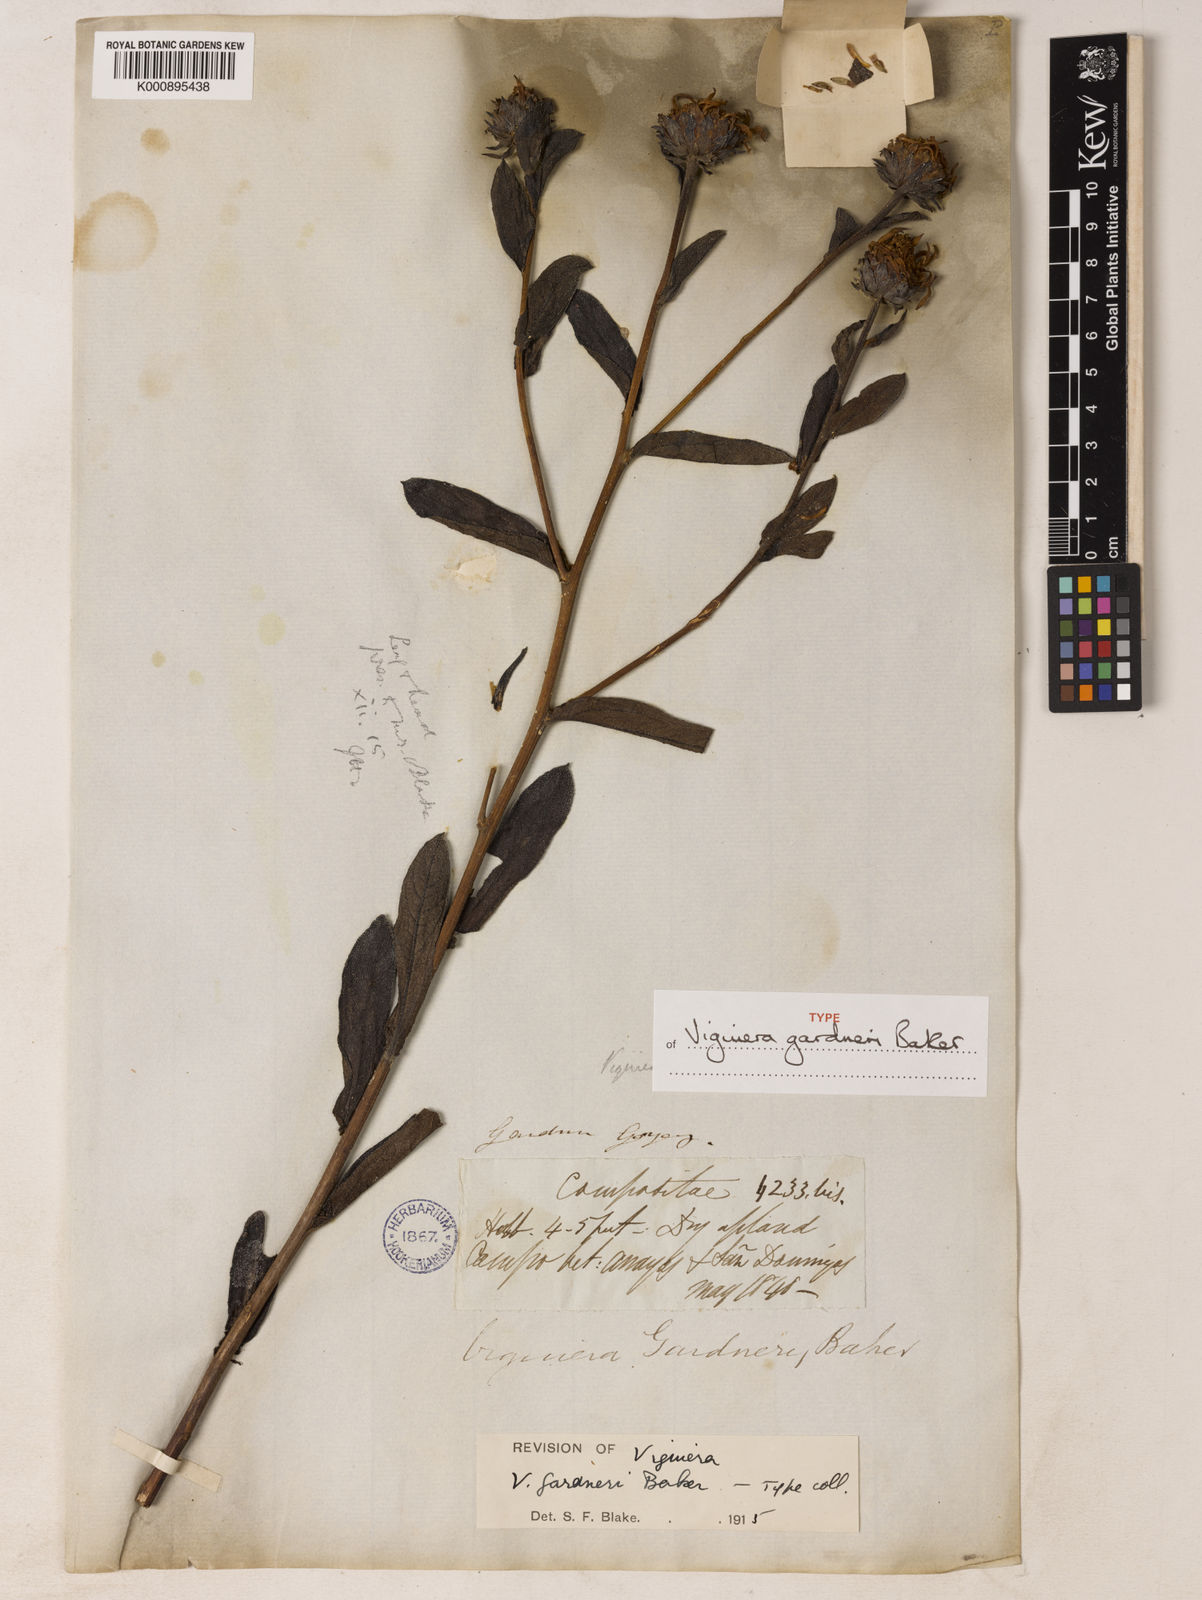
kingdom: Plantae
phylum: Tracheophyta
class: Magnoliopsida
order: Asterales
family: Asteraceae
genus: Aldama
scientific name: Aldama gardneri
